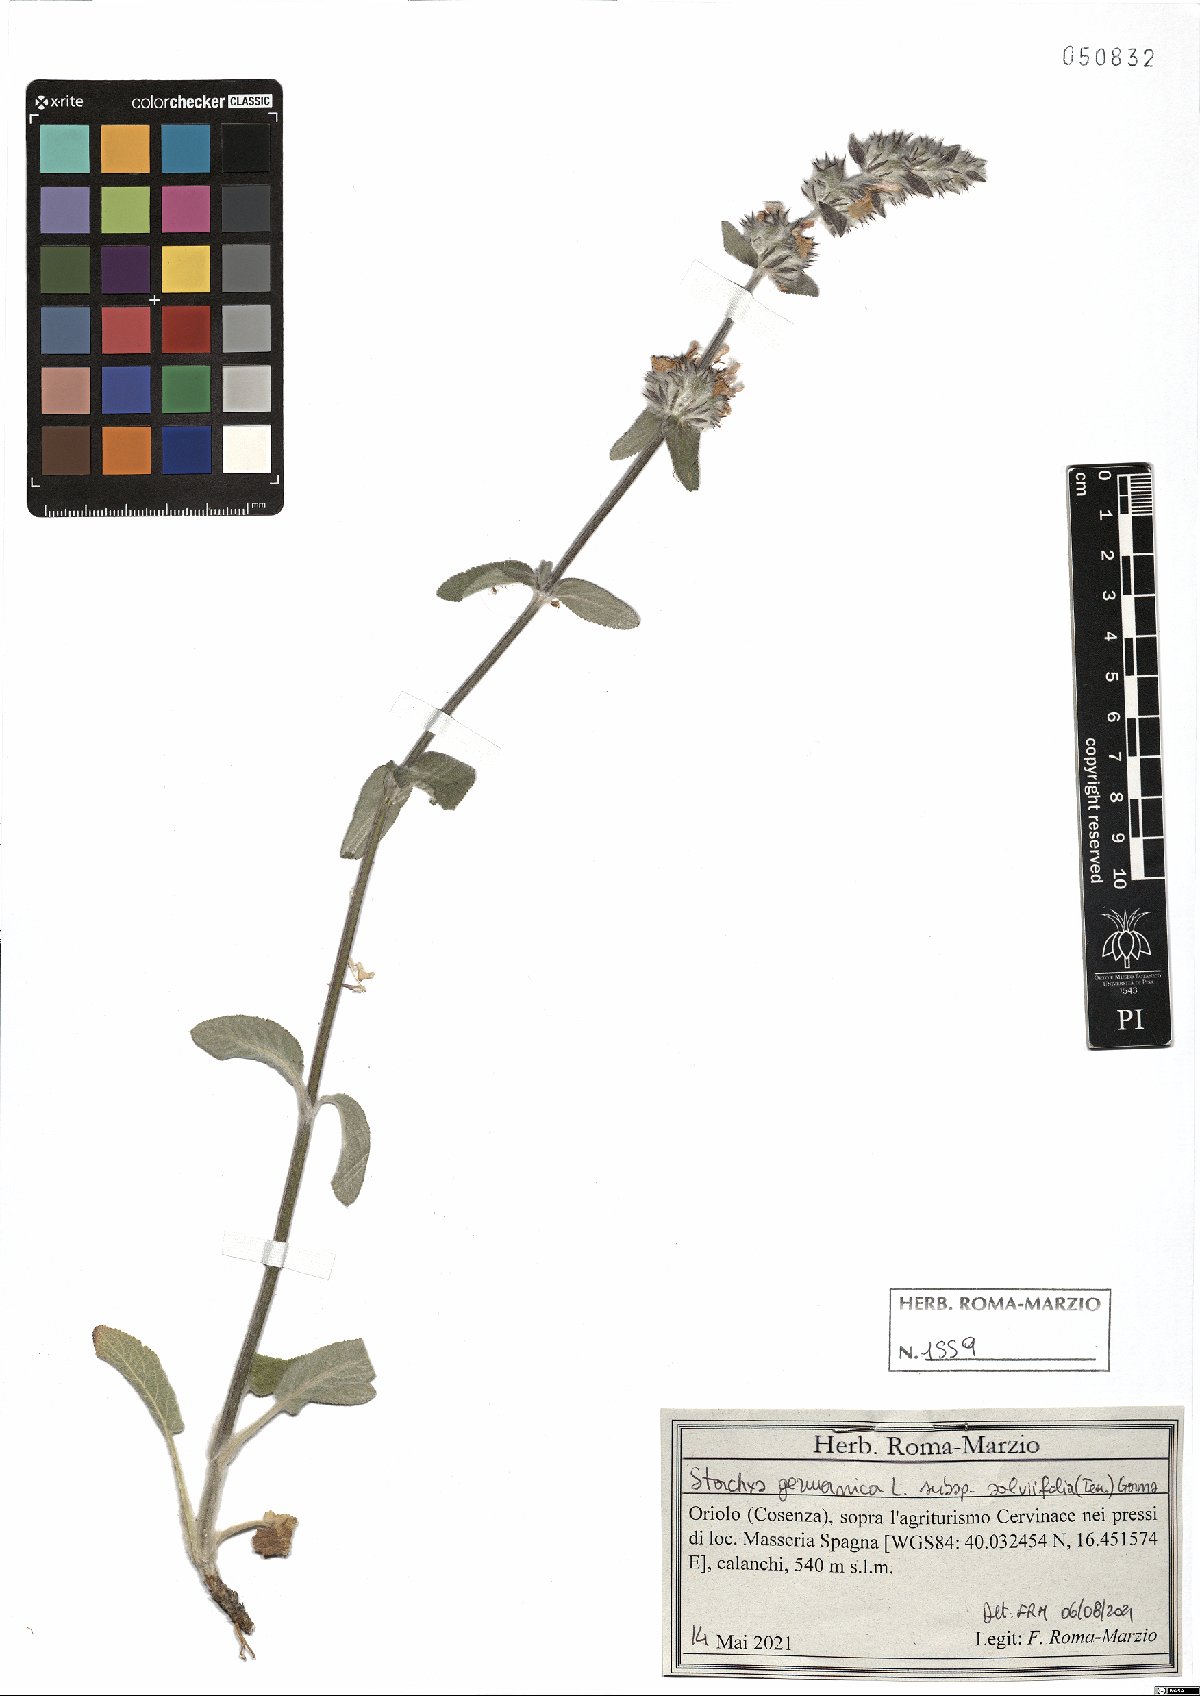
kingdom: Plantae
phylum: Tracheophyta
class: Magnoliopsida
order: Lamiales
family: Lamiaceae
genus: Stachys
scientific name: Stachys cretica
